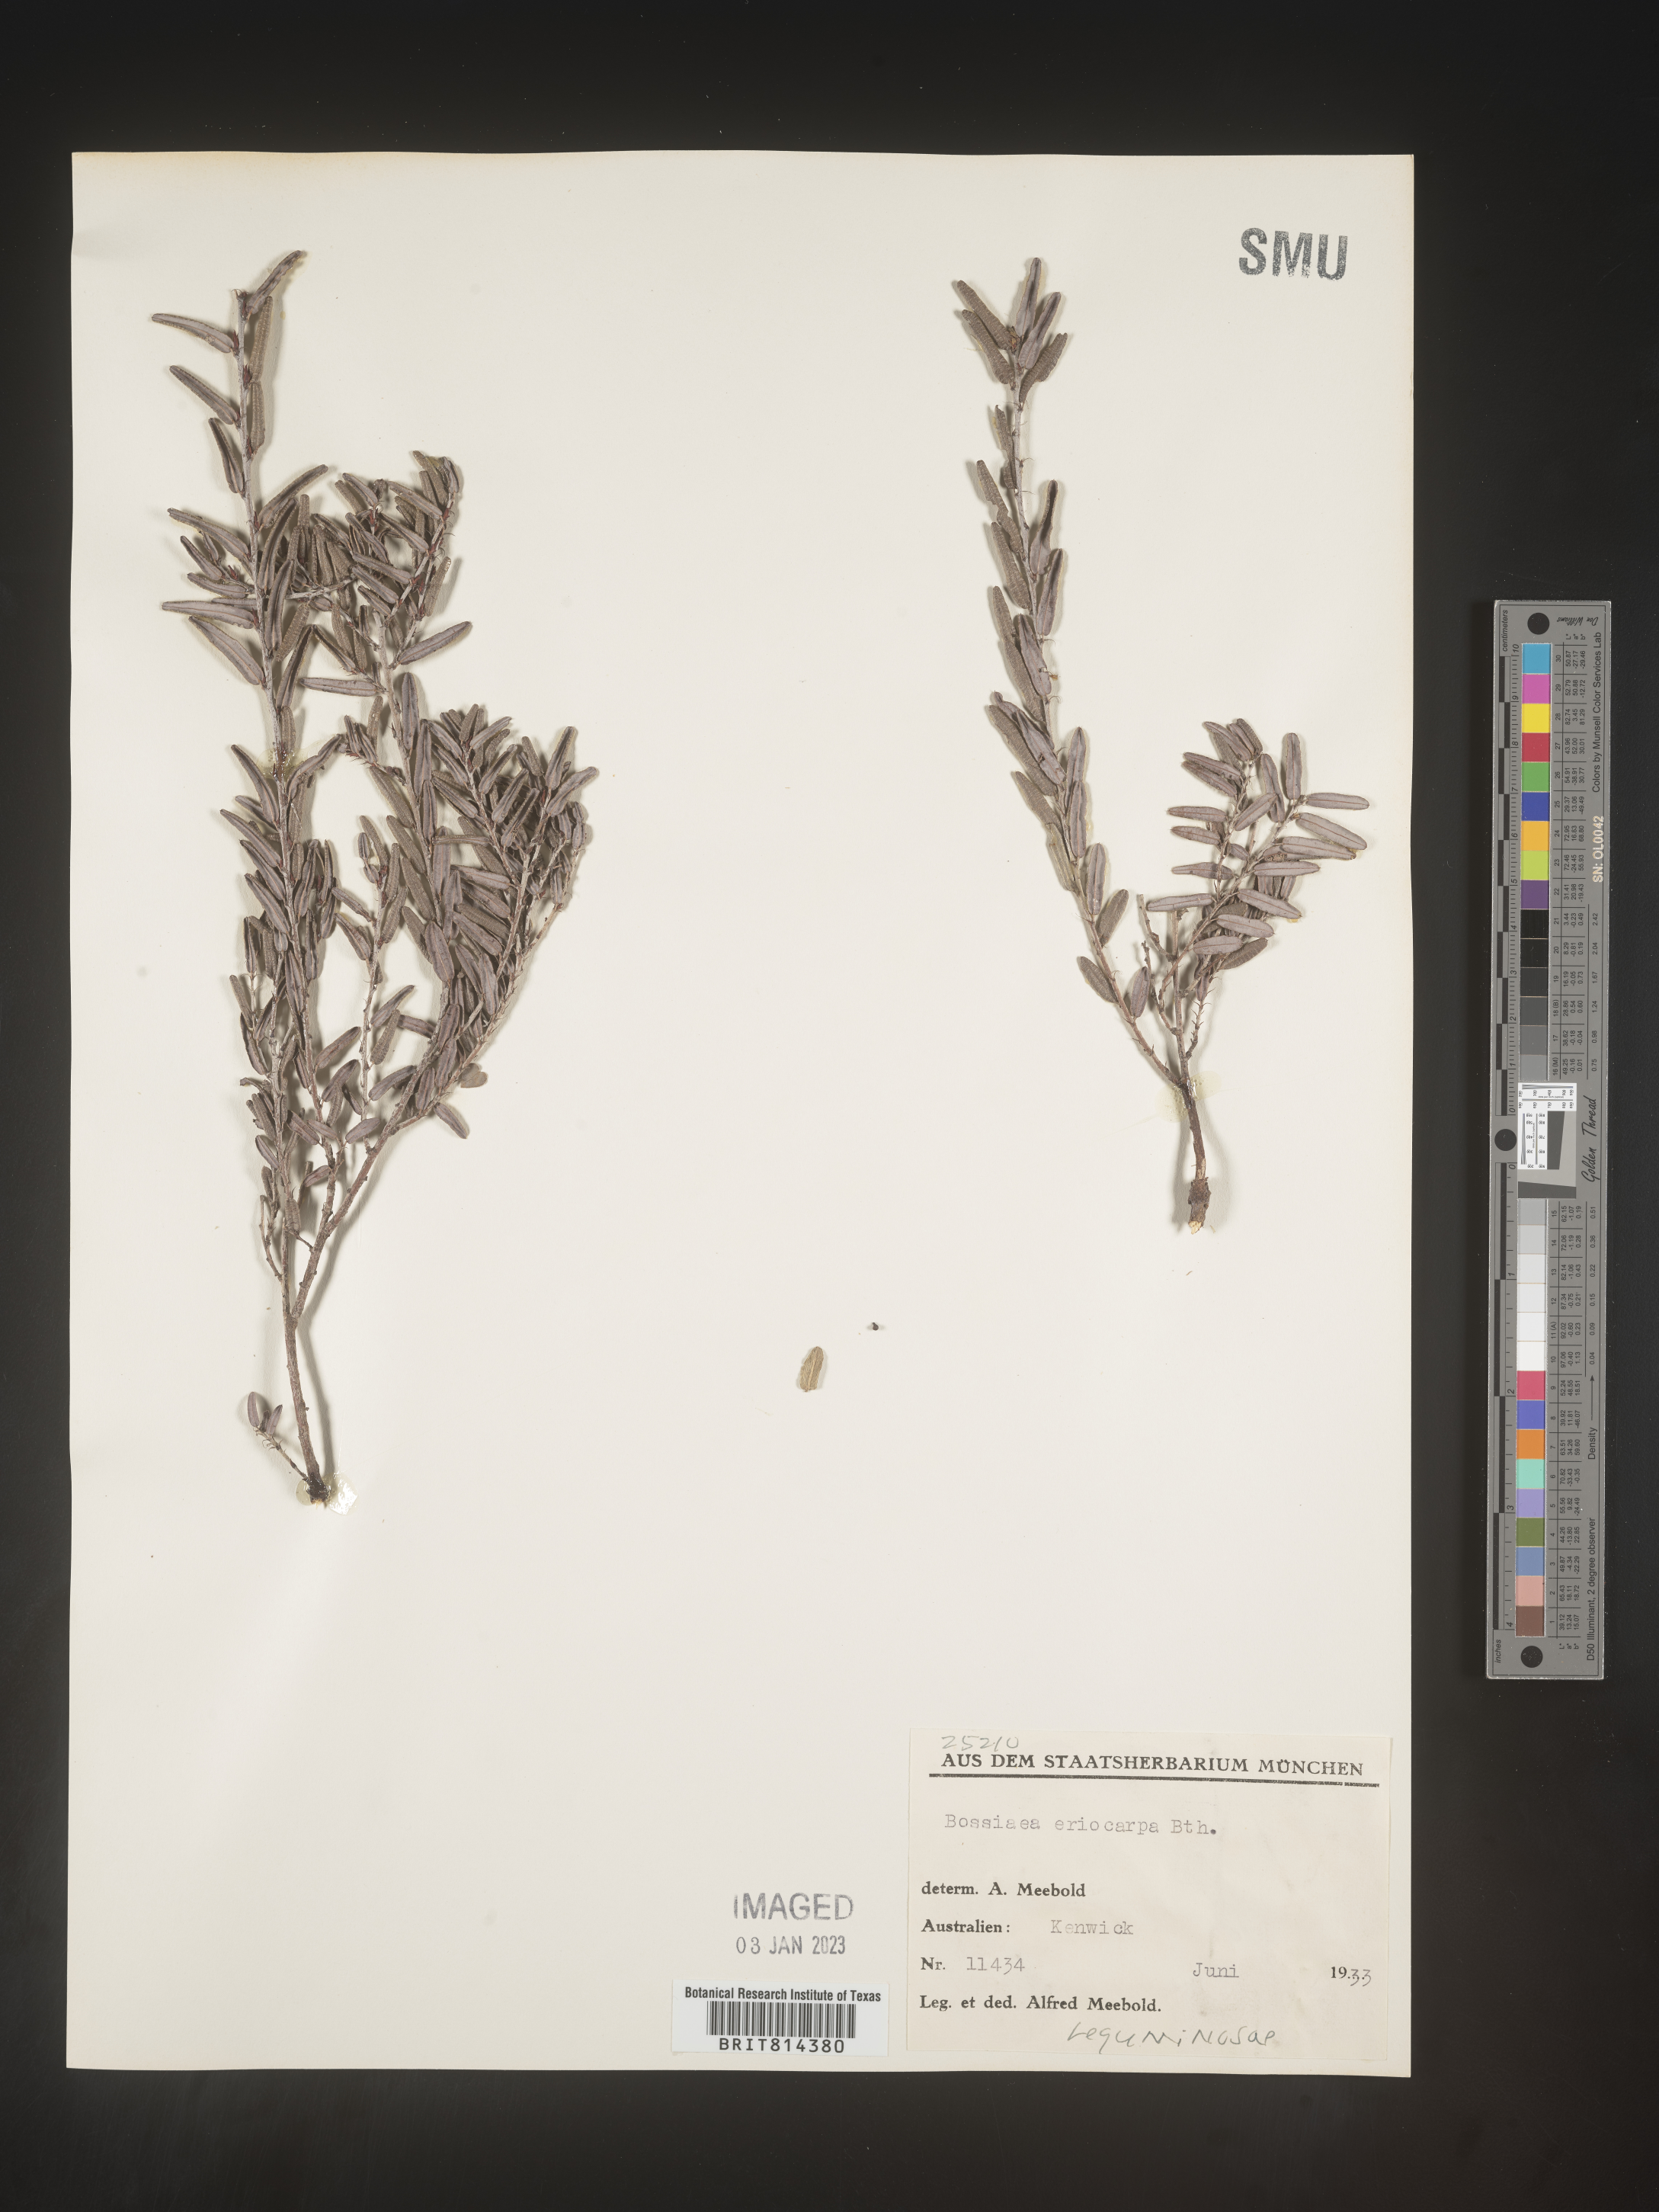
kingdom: Plantae
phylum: Tracheophyta
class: Magnoliopsida
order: Fabales
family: Fabaceae
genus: Bossiaea
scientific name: Bossiaea
